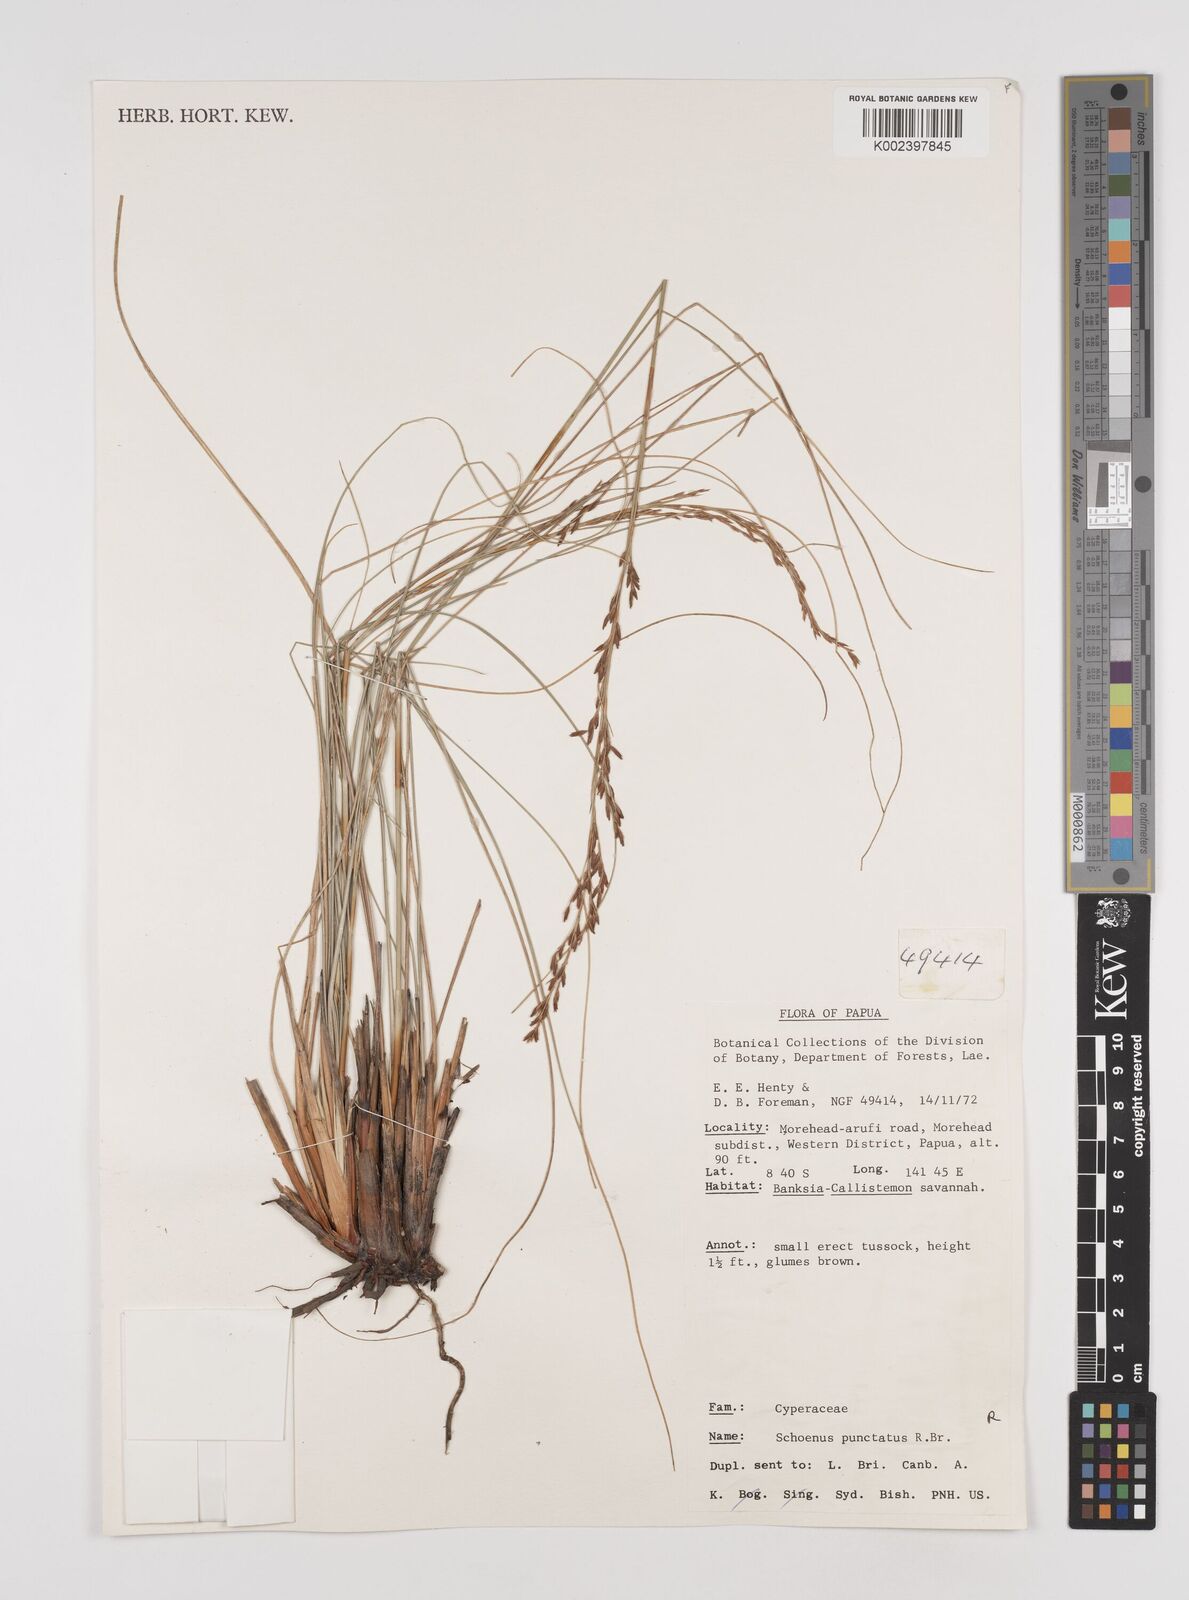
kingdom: Plantae
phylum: Tracheophyta
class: Liliopsida
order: Poales
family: Cyperaceae
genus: Schoenus
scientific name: Schoenus falcatus
